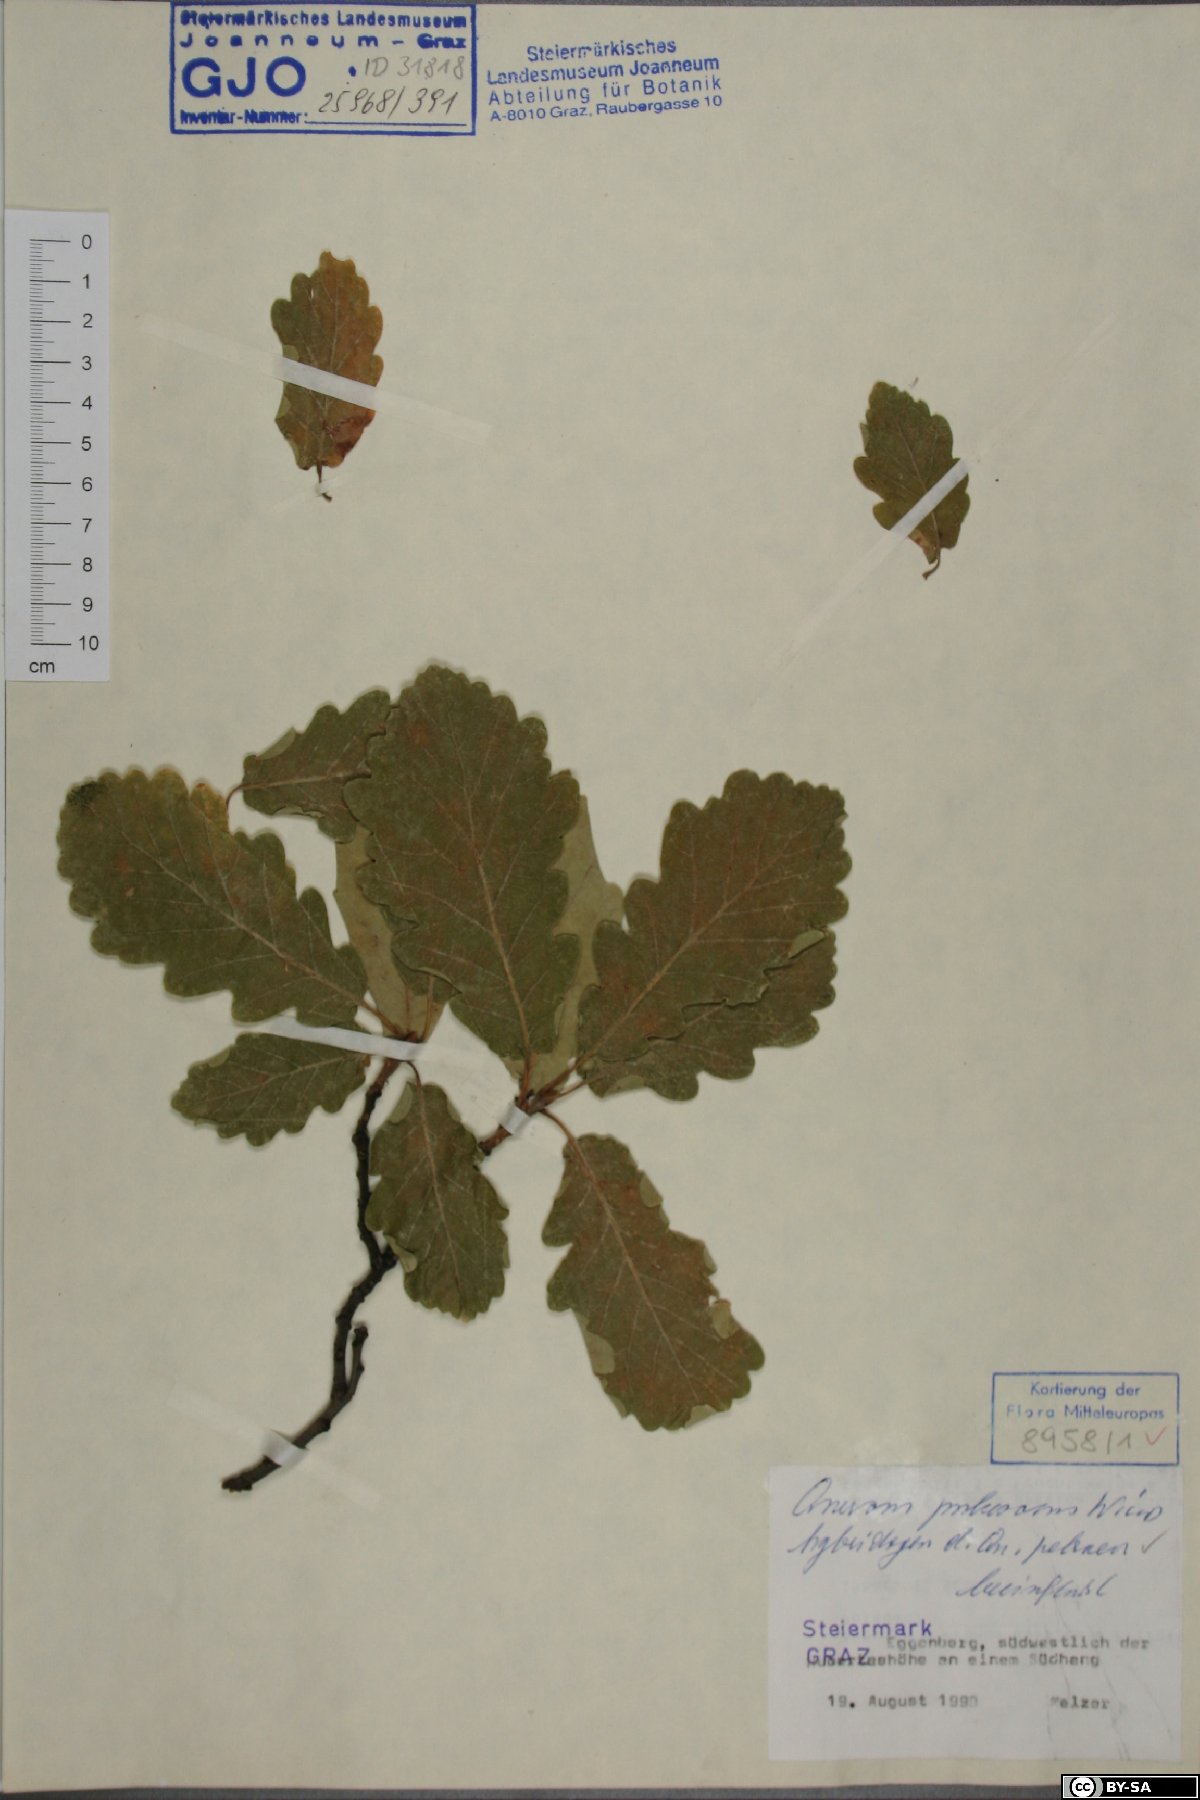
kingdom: Plantae
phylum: Tracheophyta
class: Magnoliopsida
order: Fagales
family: Fagaceae
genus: Quercus
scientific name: Quercus pubescens
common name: Downy oak
